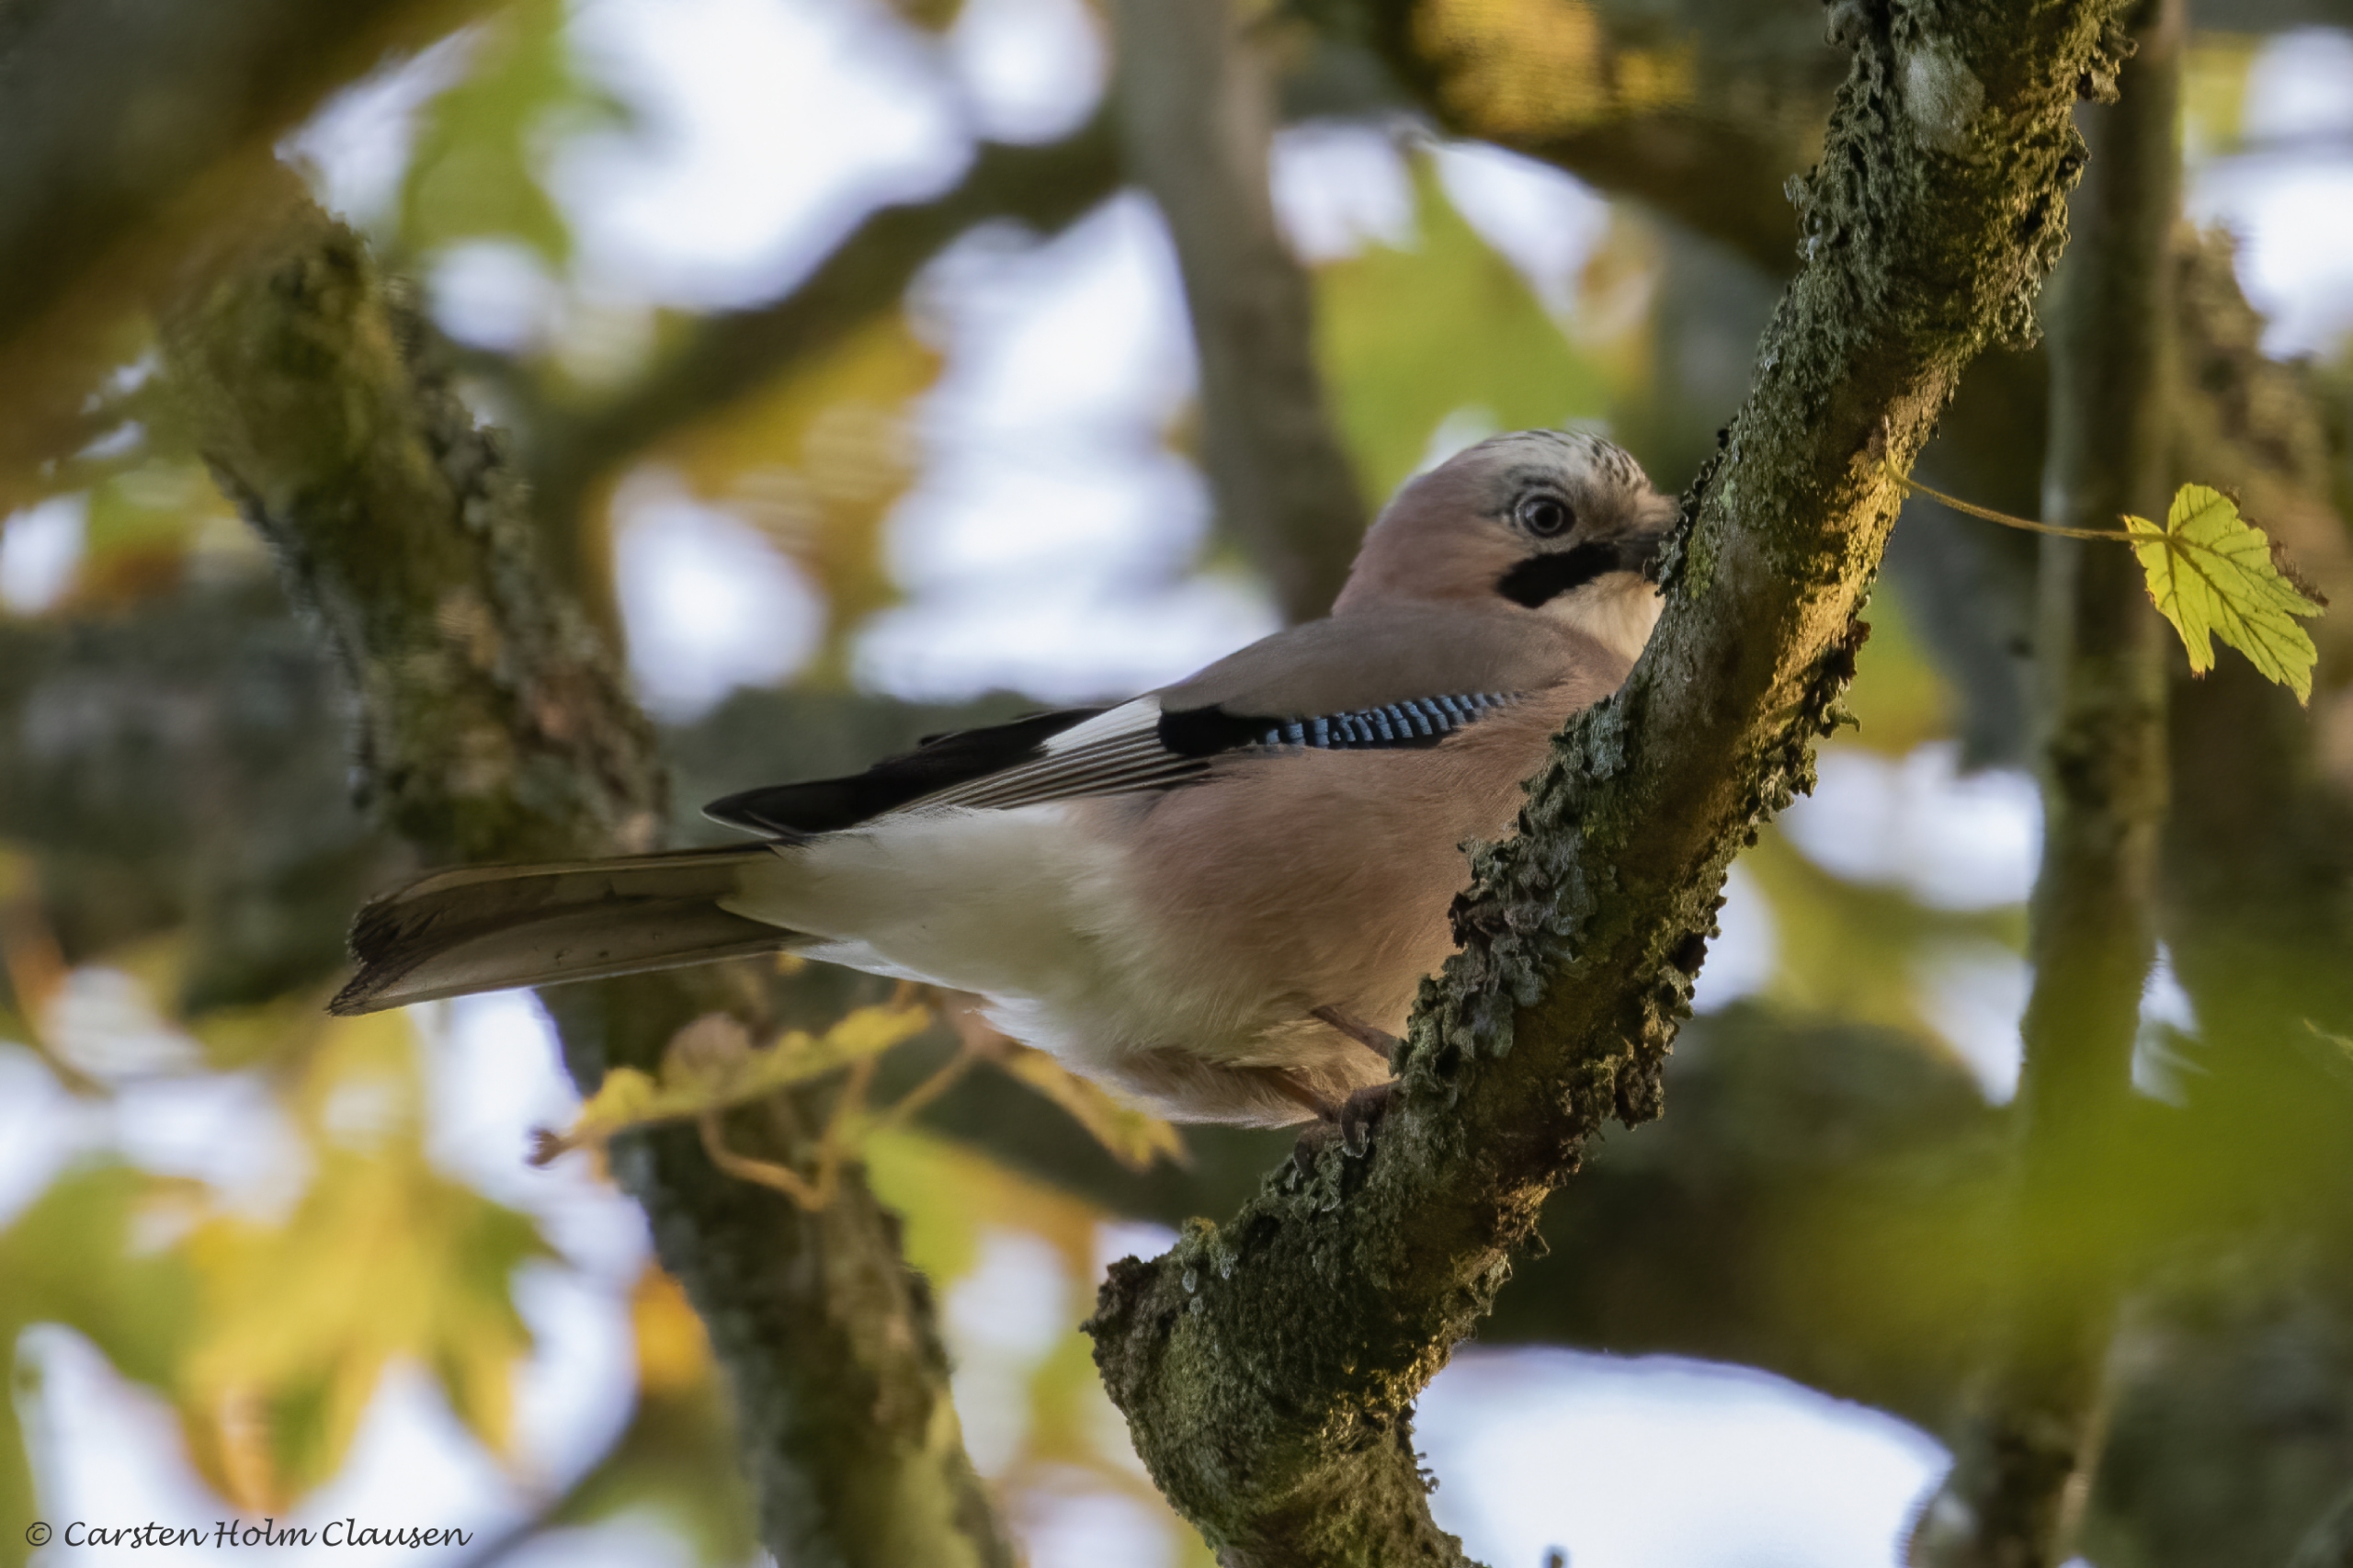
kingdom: Animalia
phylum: Chordata
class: Aves
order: Passeriformes
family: Corvidae
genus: Garrulus
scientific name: Garrulus glandarius
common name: Skovskade
